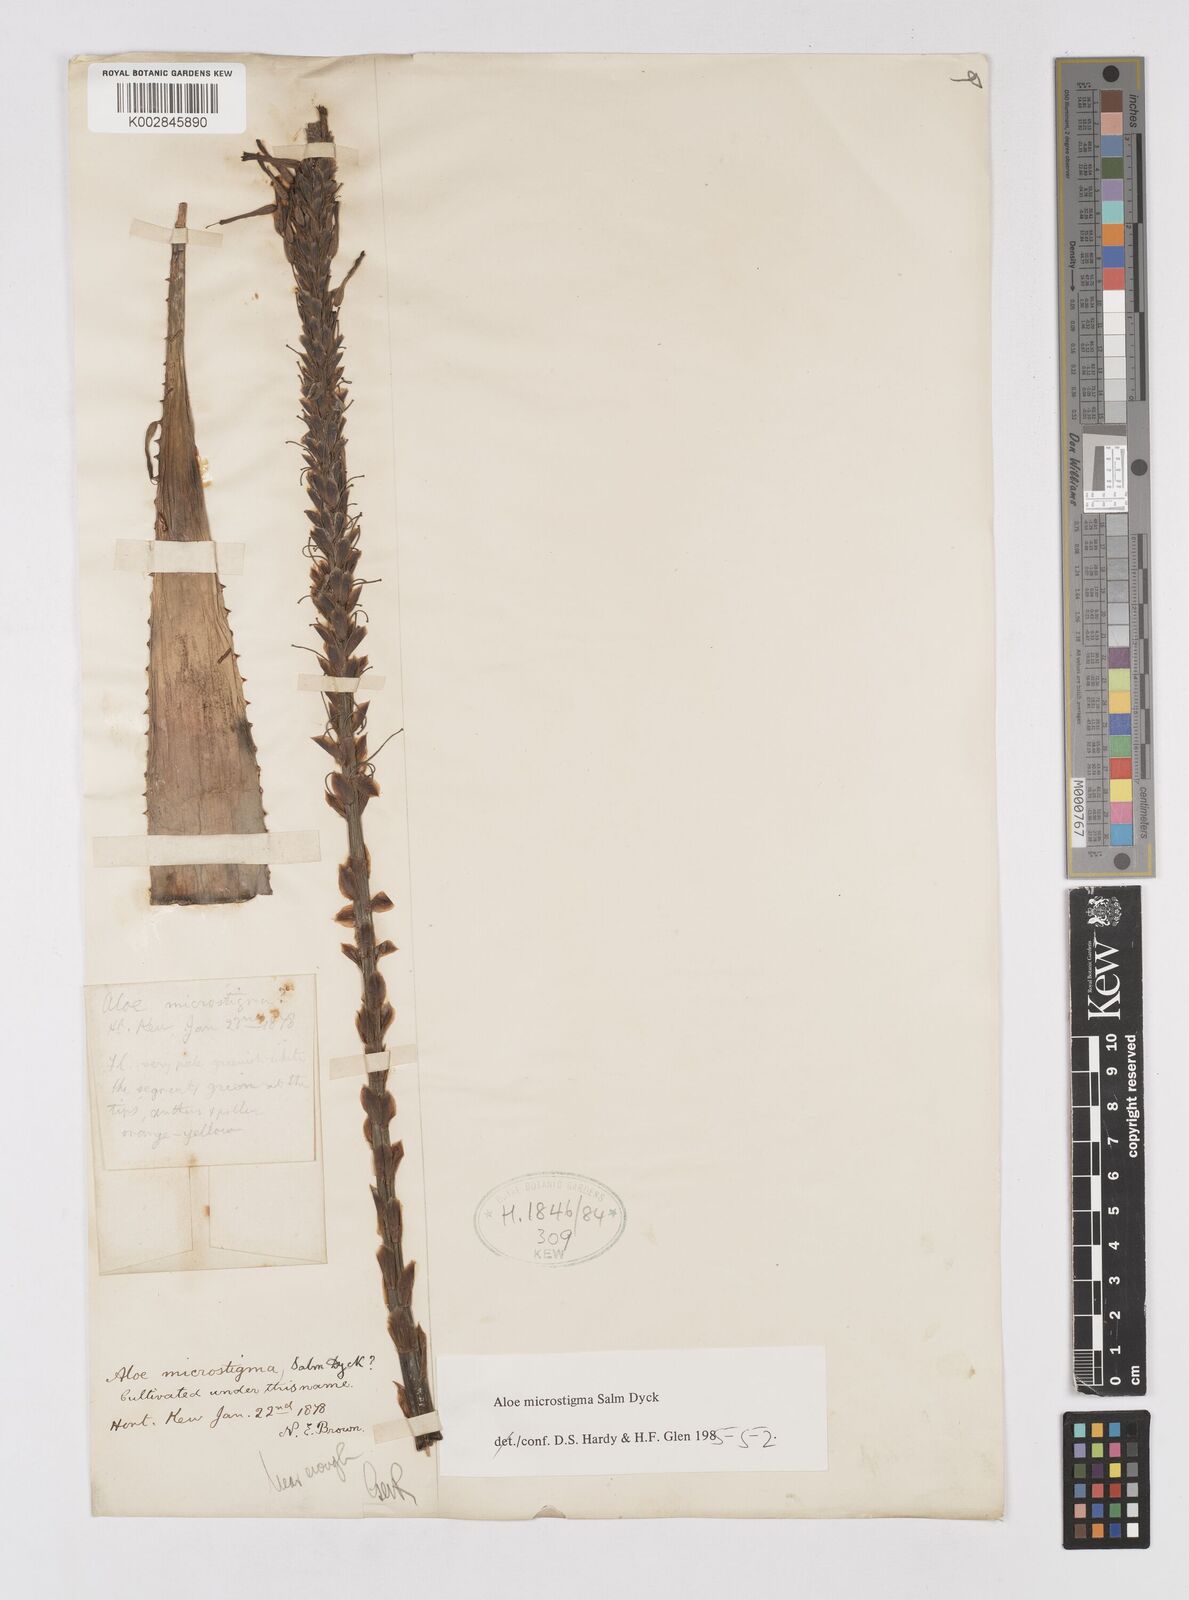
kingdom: Plantae
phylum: Tracheophyta
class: Liliopsida
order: Asparagales
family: Asphodelaceae
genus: Aloe
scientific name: Aloe microstigma
